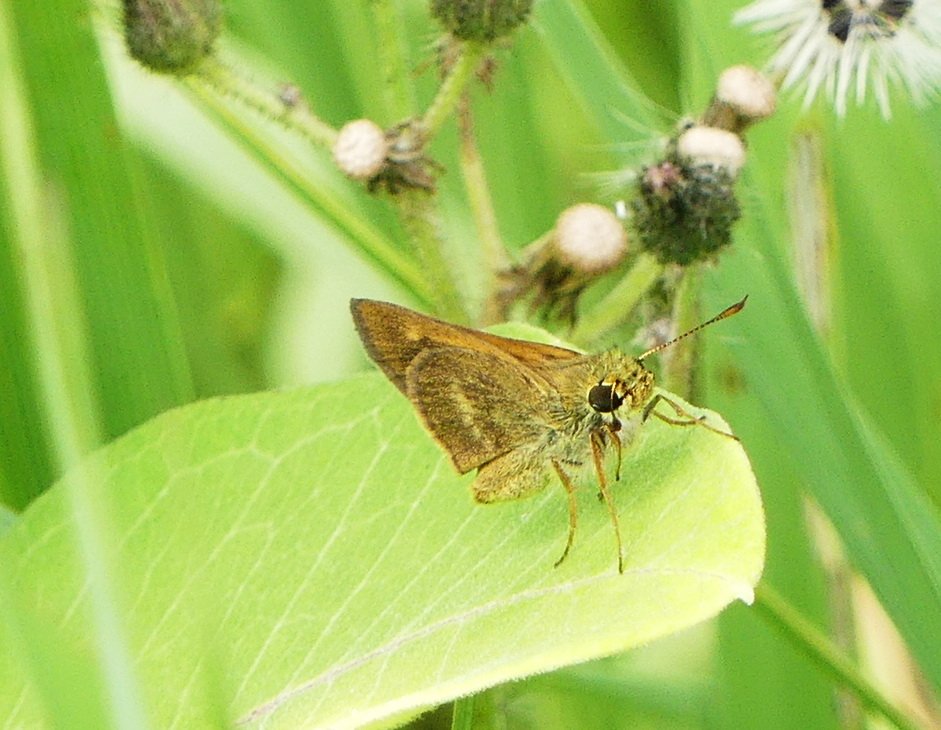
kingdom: Animalia
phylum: Arthropoda
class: Insecta
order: Lepidoptera
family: Hesperiidae
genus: Polites
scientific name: Polites egeremet
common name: Northern Broken-Dash
